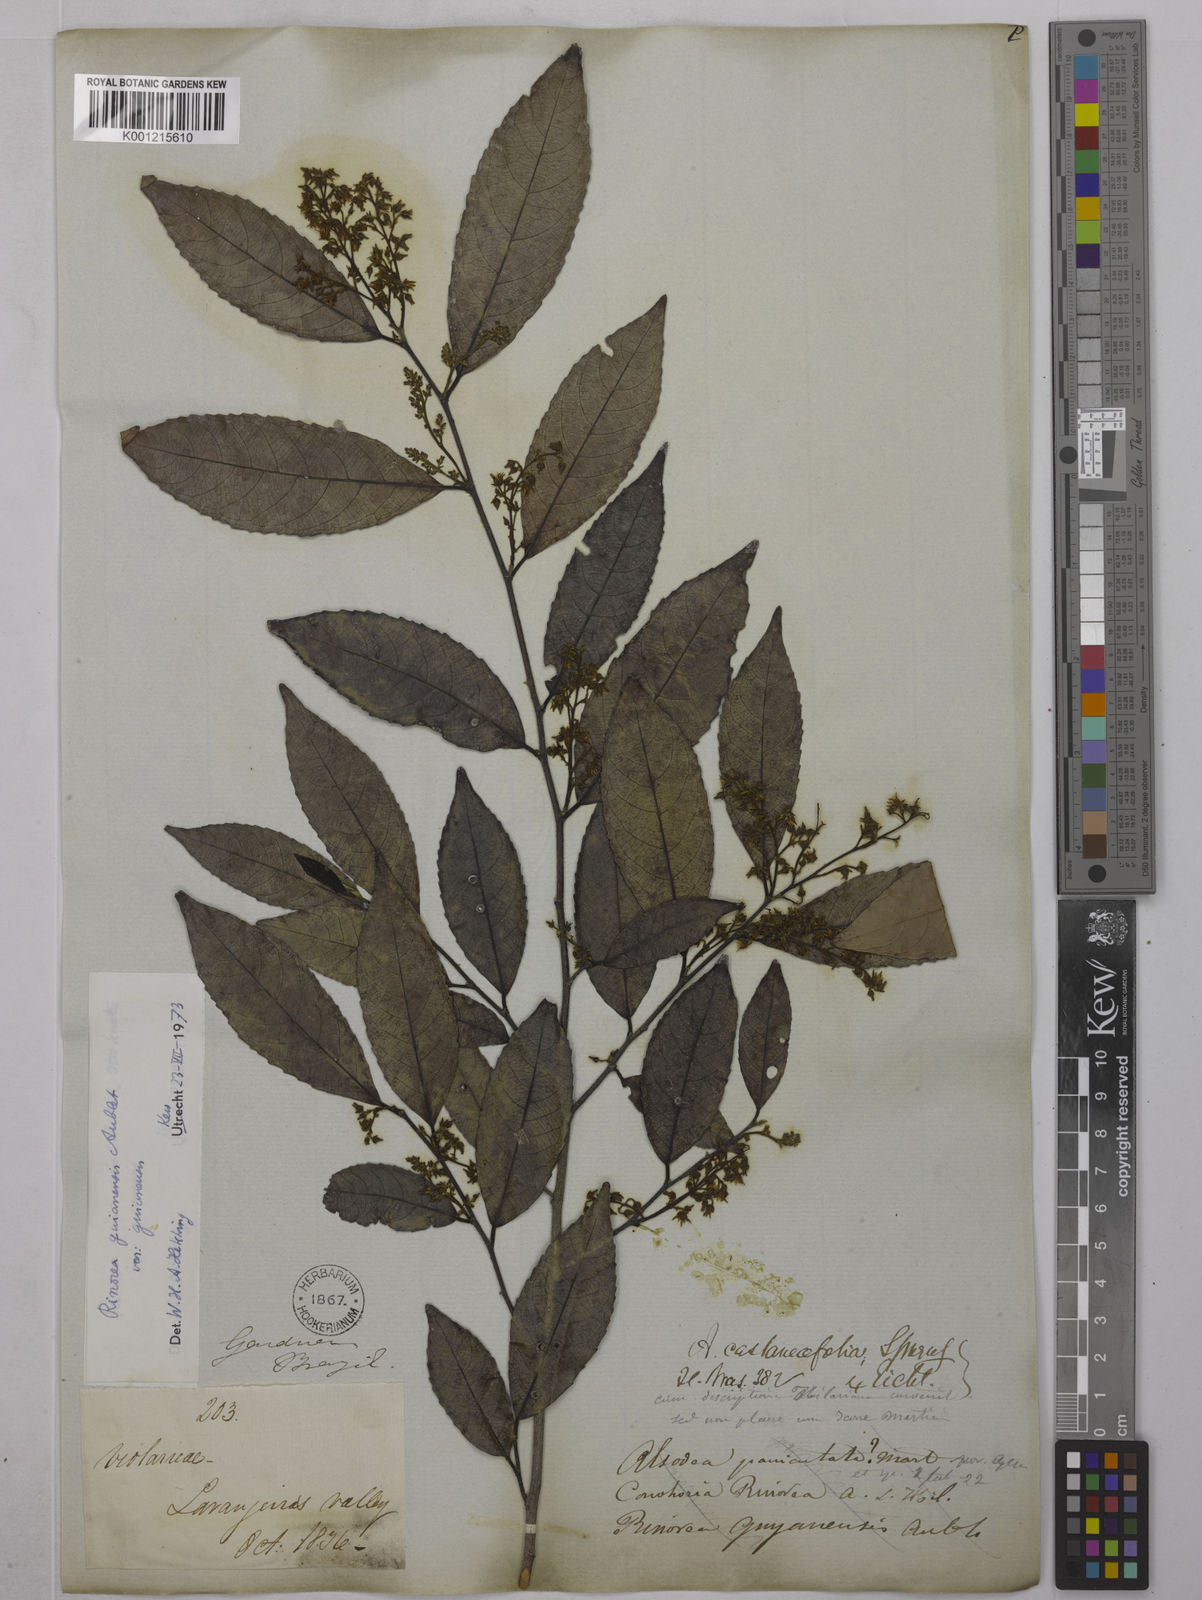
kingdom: Plantae
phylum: Tracheophyta
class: Magnoliopsida
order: Malpighiales
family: Violaceae
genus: Rinorea
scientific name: Rinorea guianensis
